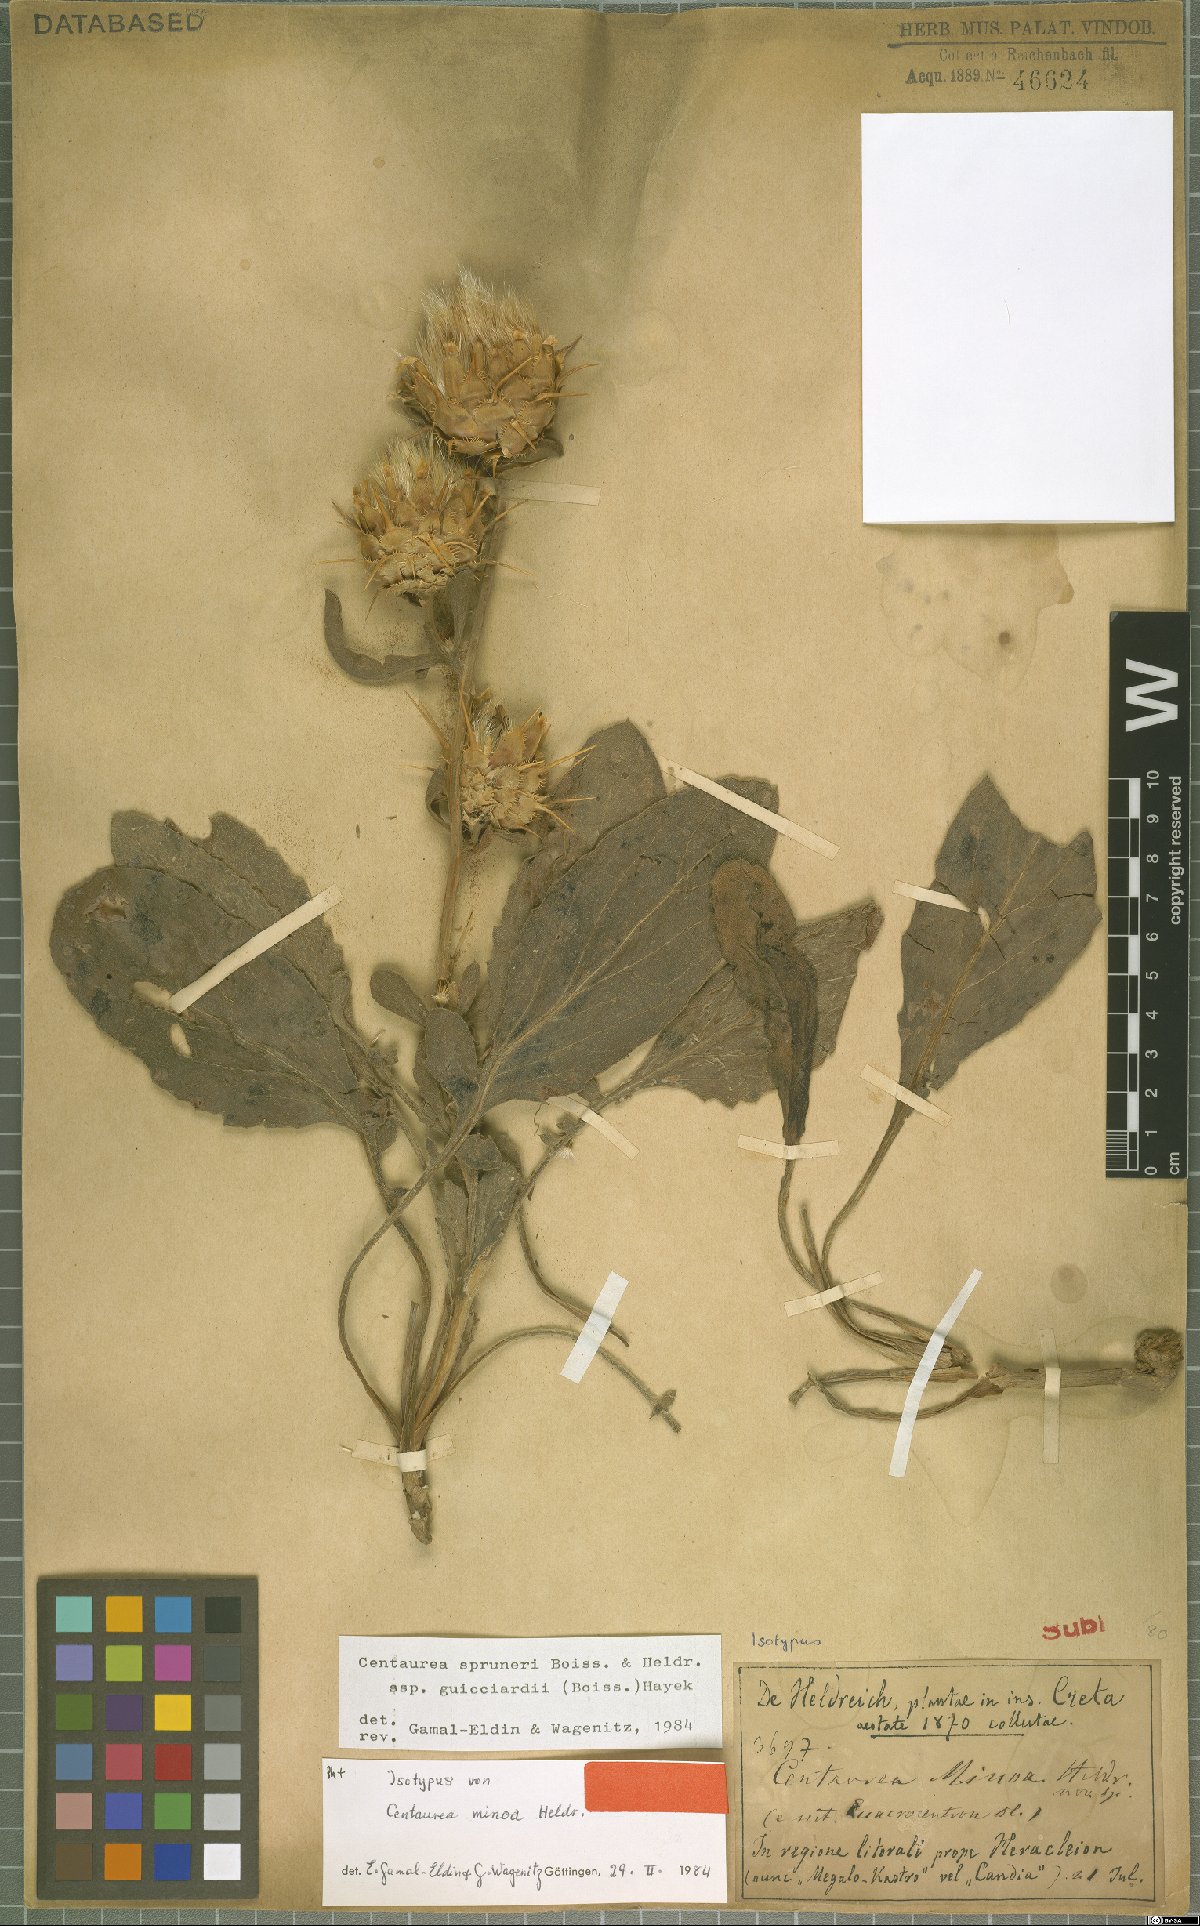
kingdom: Plantae
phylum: Tracheophyta
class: Magnoliopsida
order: Asterales
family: Asteraceae
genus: Centaurea
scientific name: Centaurea spruneri
